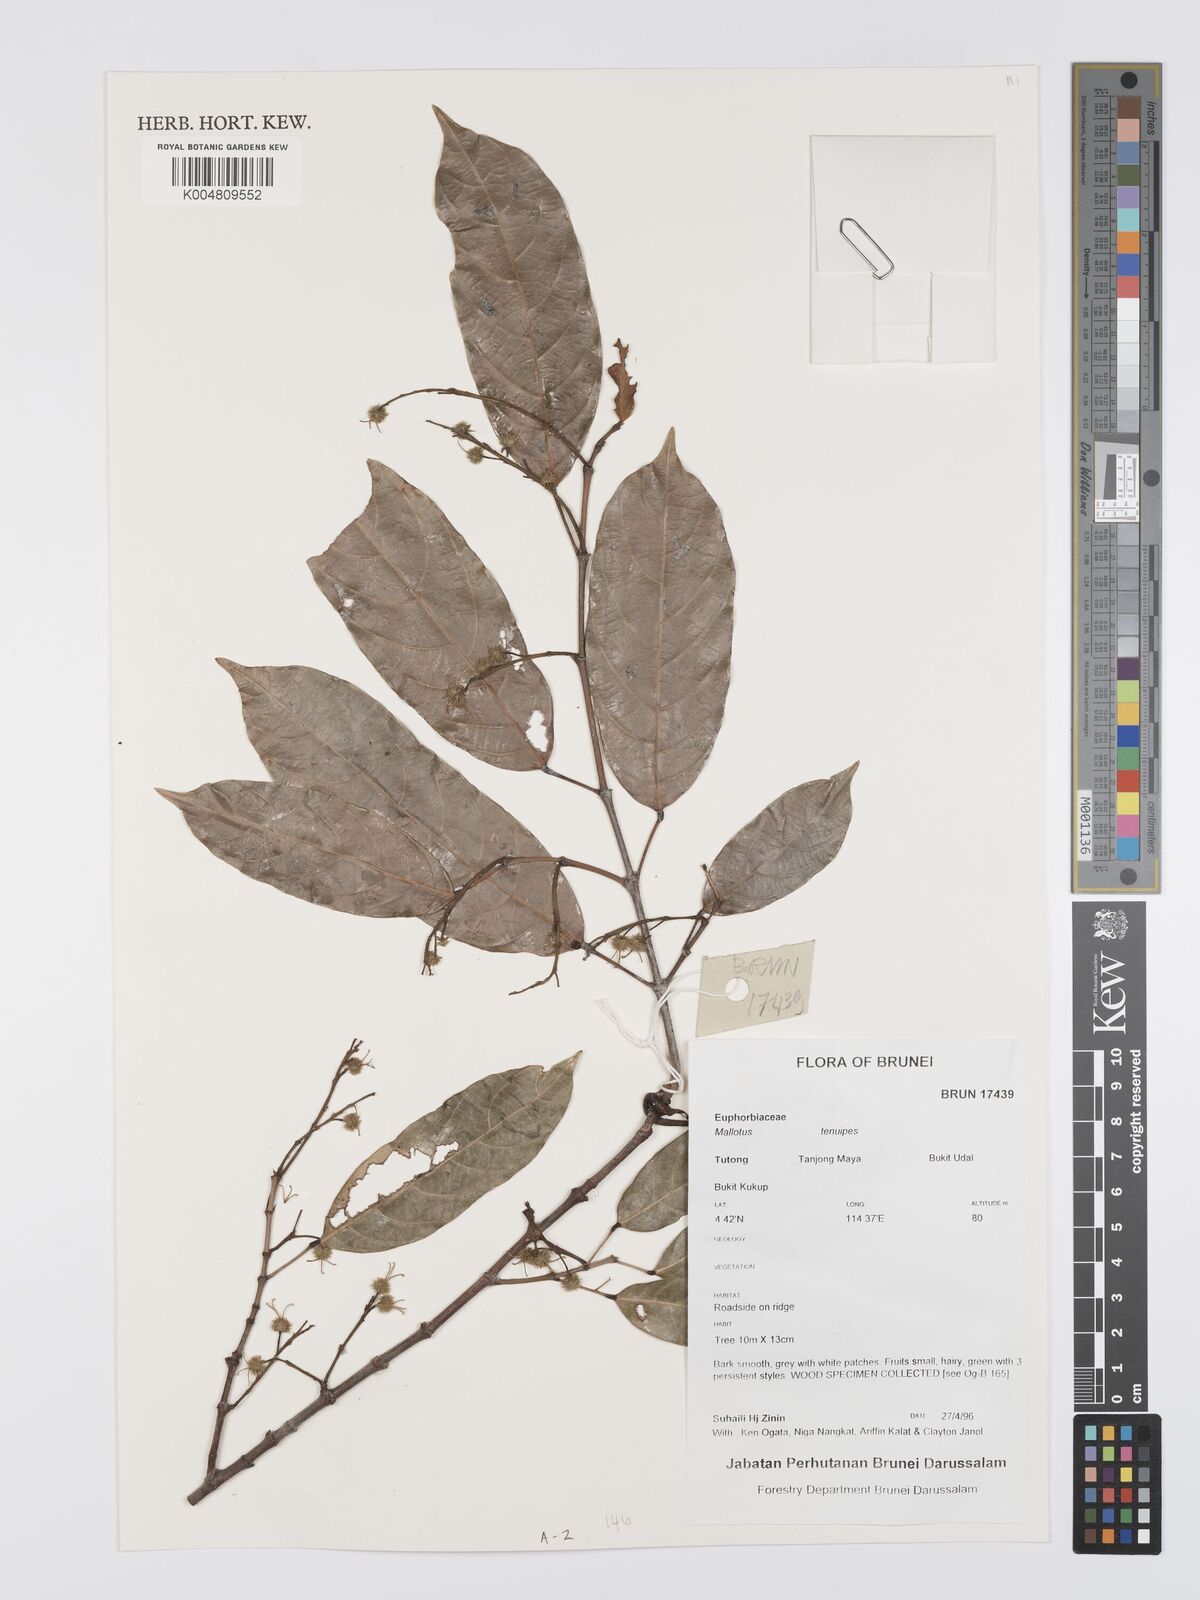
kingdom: Plantae
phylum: Tracheophyta
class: Magnoliopsida
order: Malpighiales
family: Euphorbiaceae
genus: Hancea
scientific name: Hancea penangensis
